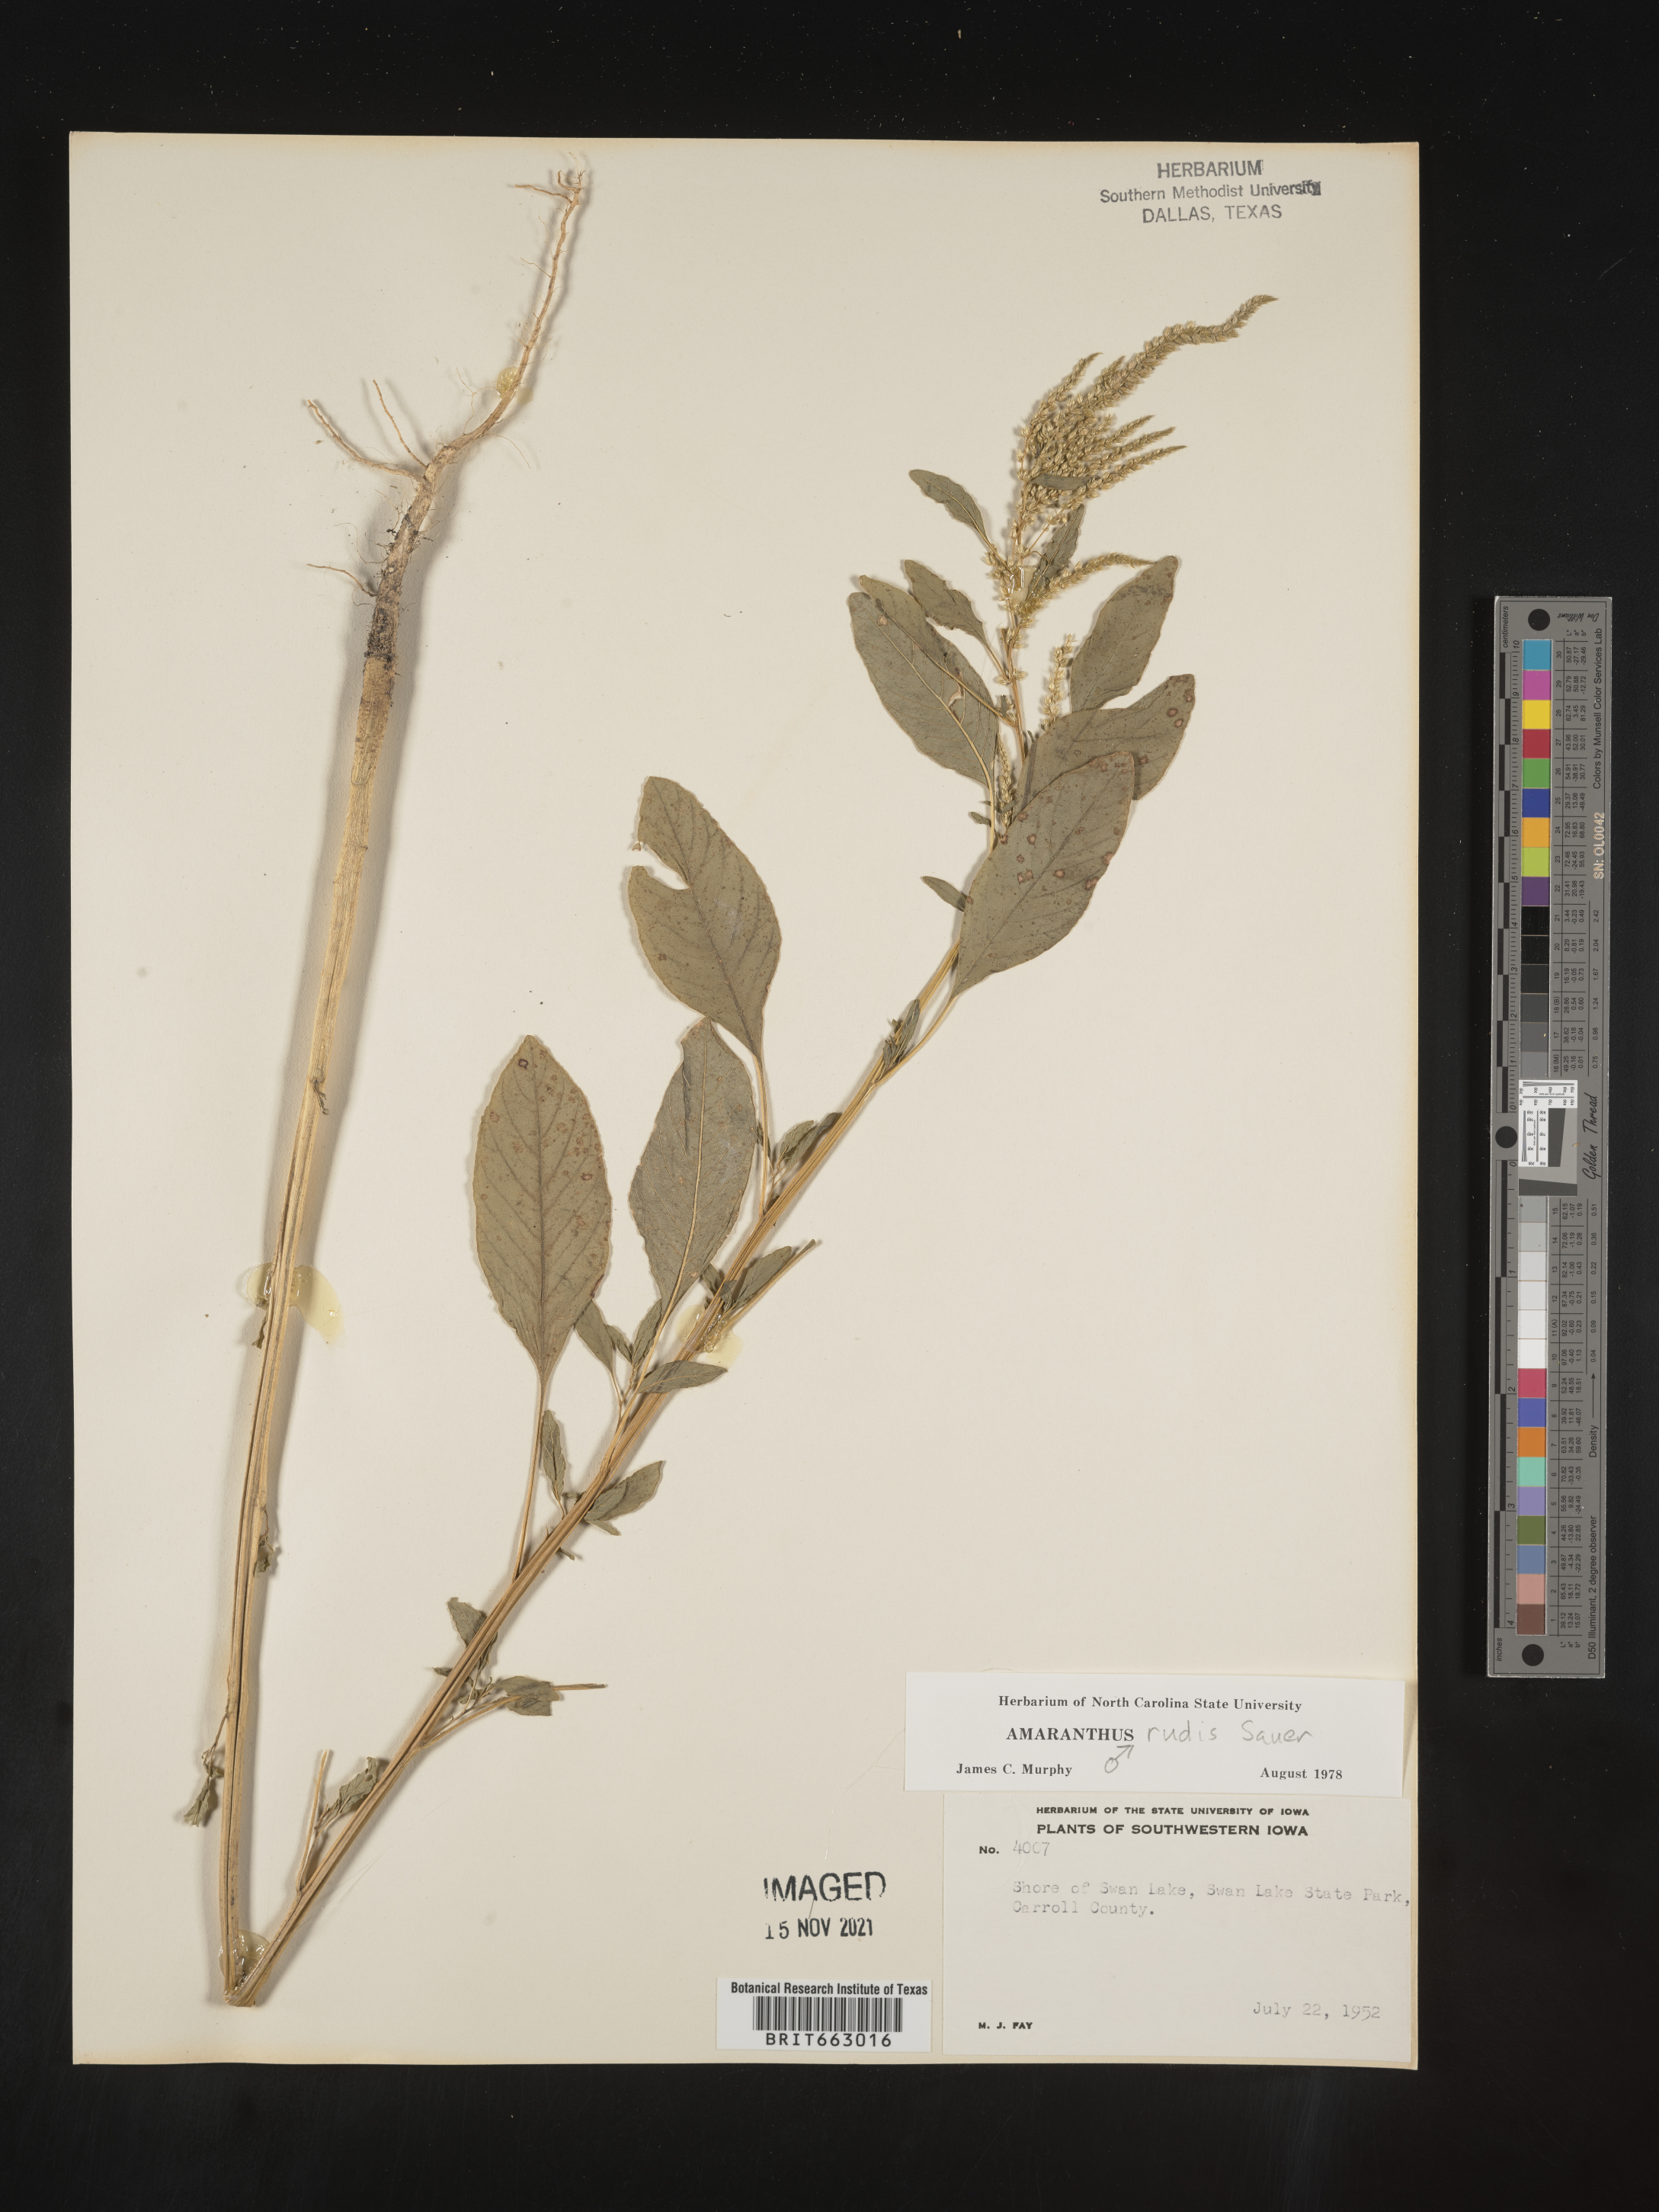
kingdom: Plantae
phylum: Tracheophyta
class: Magnoliopsida
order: Caryophyllales
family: Amaranthaceae
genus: Amaranthus
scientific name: Amaranthus tuberculatus
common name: Rough-fruit amaranth
